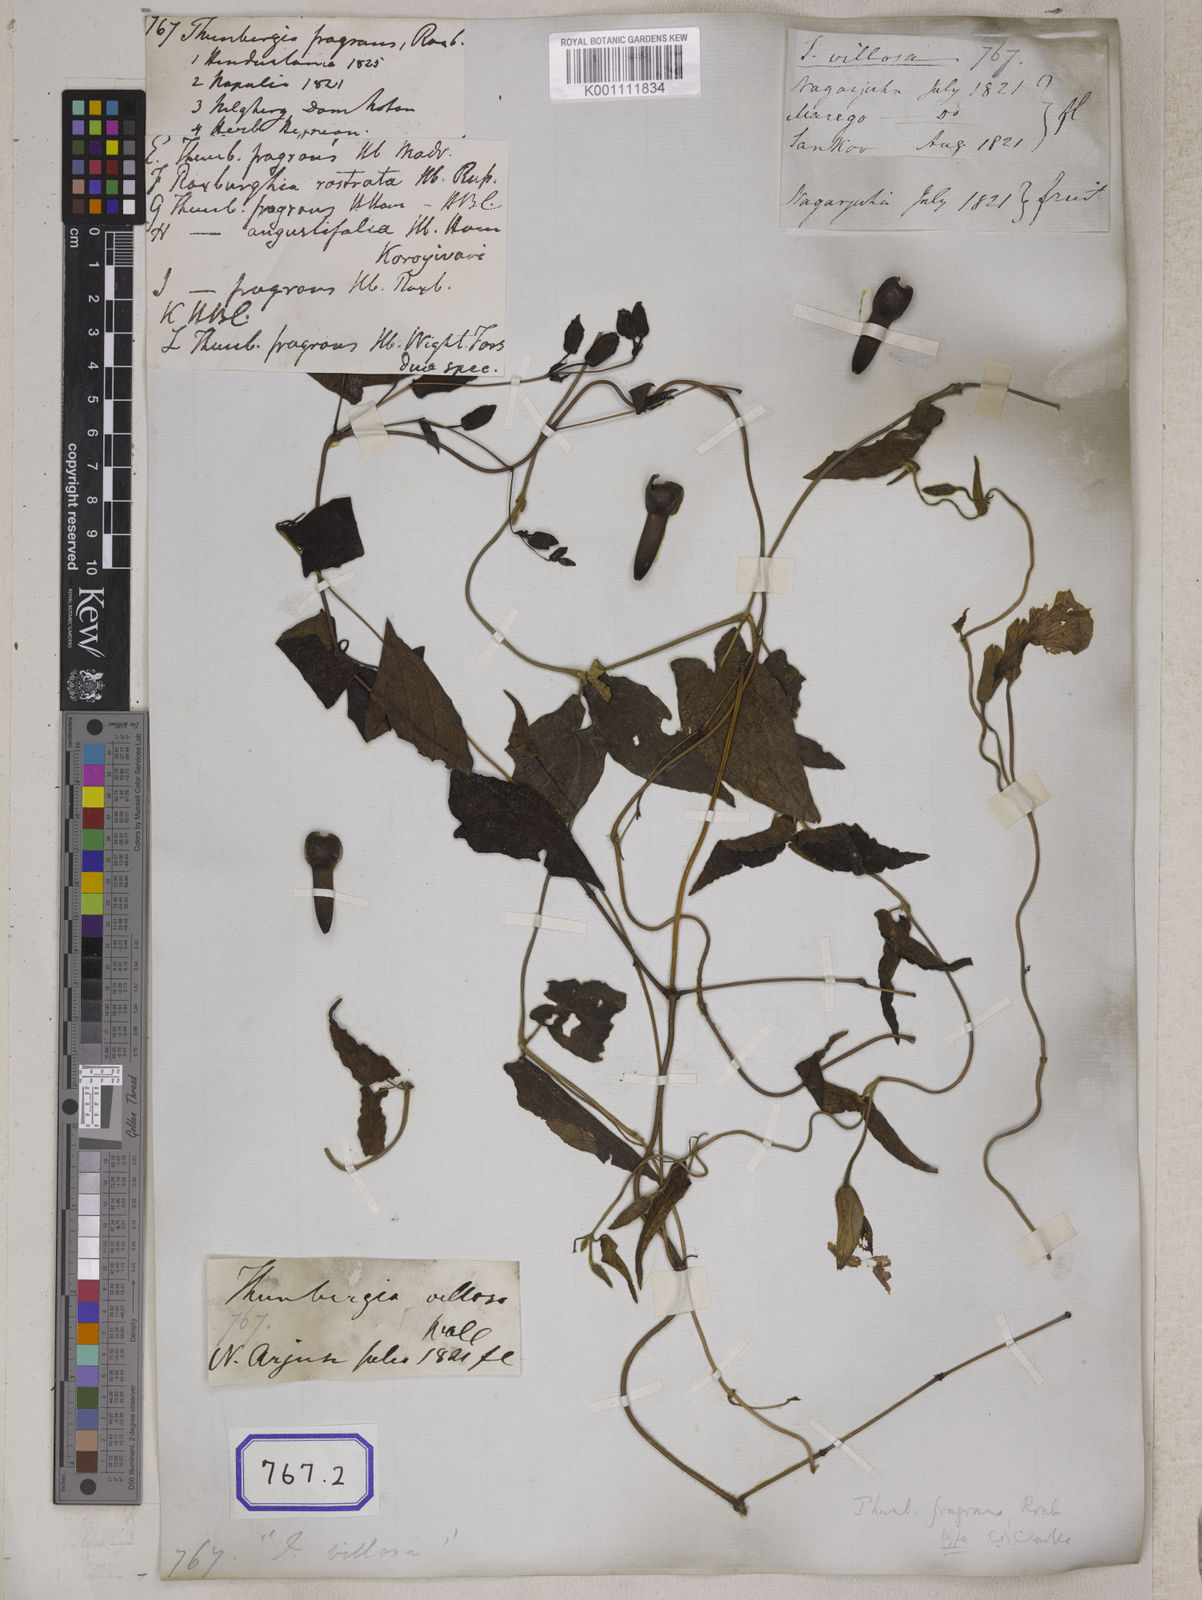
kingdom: Plantae
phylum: Tracheophyta
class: Magnoliopsida
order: Lamiales
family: Acanthaceae
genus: Thunbergia
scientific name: Thunbergia fragrans
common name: Whitelady
